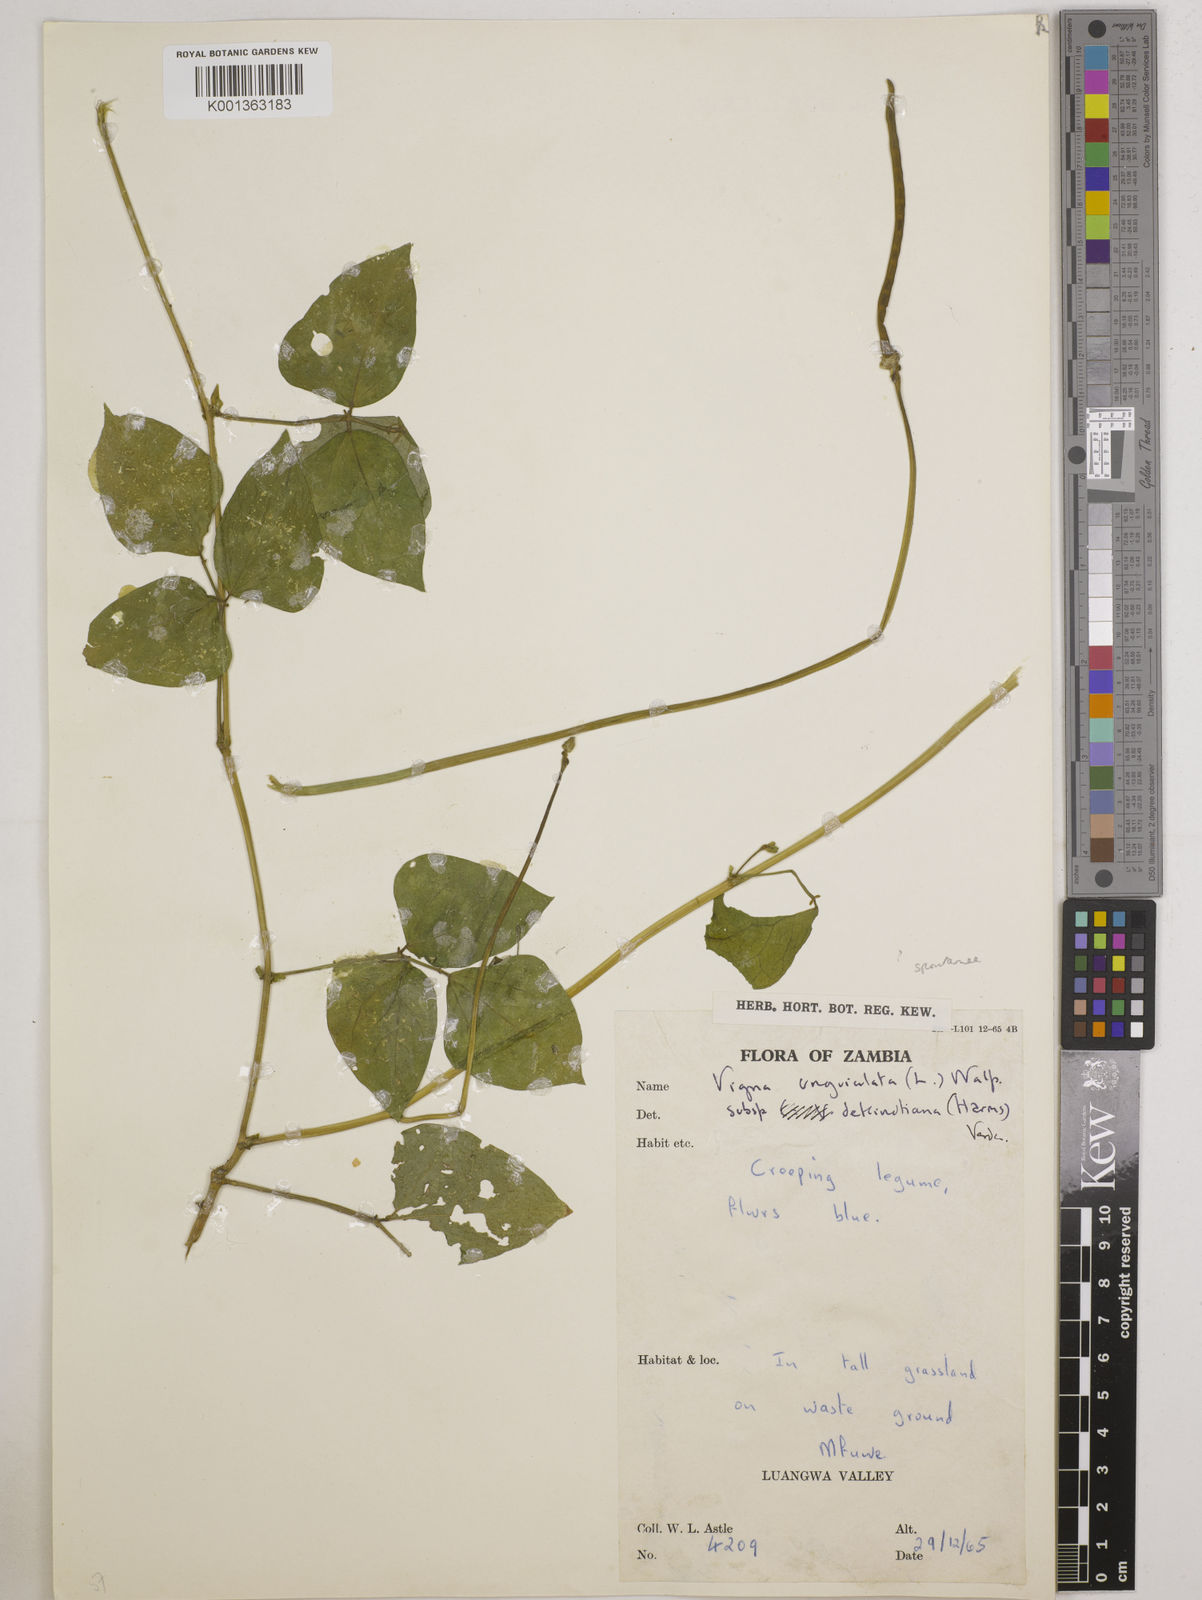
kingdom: Plantae
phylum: Tracheophyta
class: Magnoliopsida
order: Fabales
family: Fabaceae
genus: Vigna
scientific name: Vigna unguiculata
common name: Cowpea
